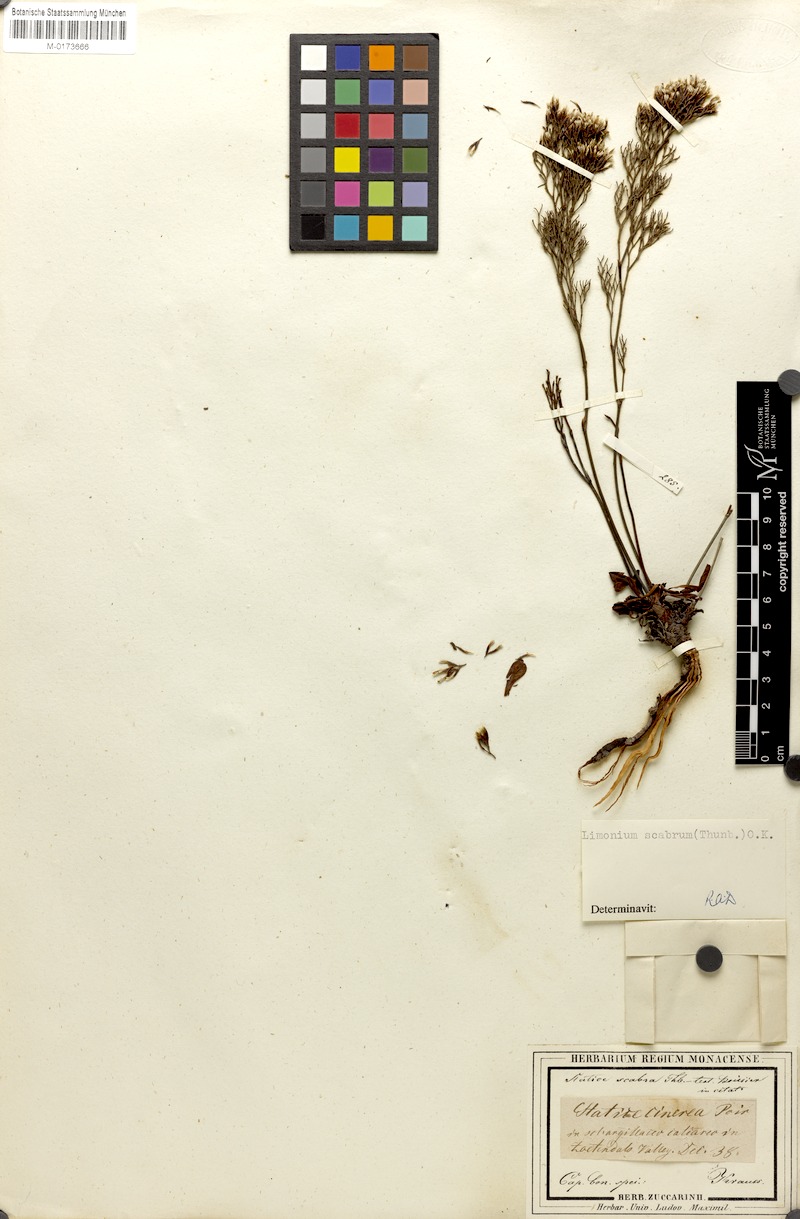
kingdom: Plantae
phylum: Tracheophyta
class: Magnoliopsida
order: Caryophyllales
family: Plumbaginaceae
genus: Limonium
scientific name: Limonium scabrum
